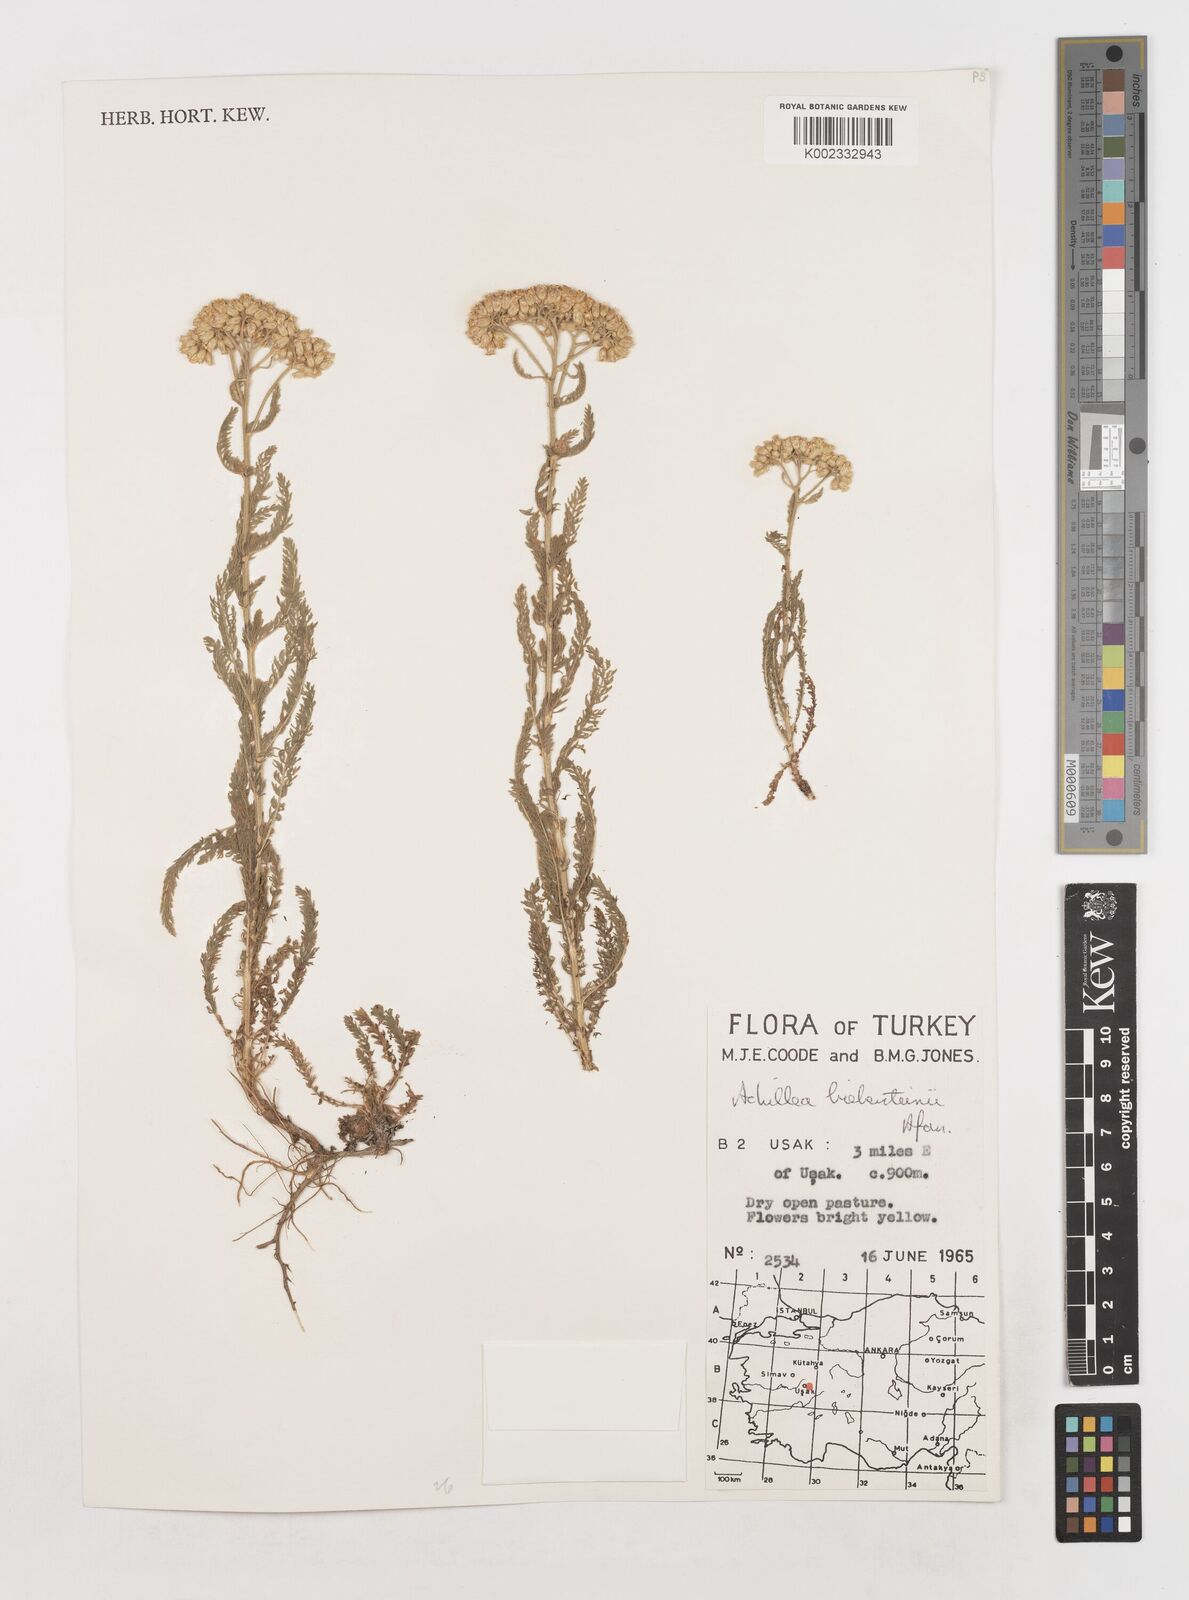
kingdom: Plantae
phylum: Tracheophyta
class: Magnoliopsida
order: Asterales
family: Asteraceae
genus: Achillea
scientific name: Achillea arabica
